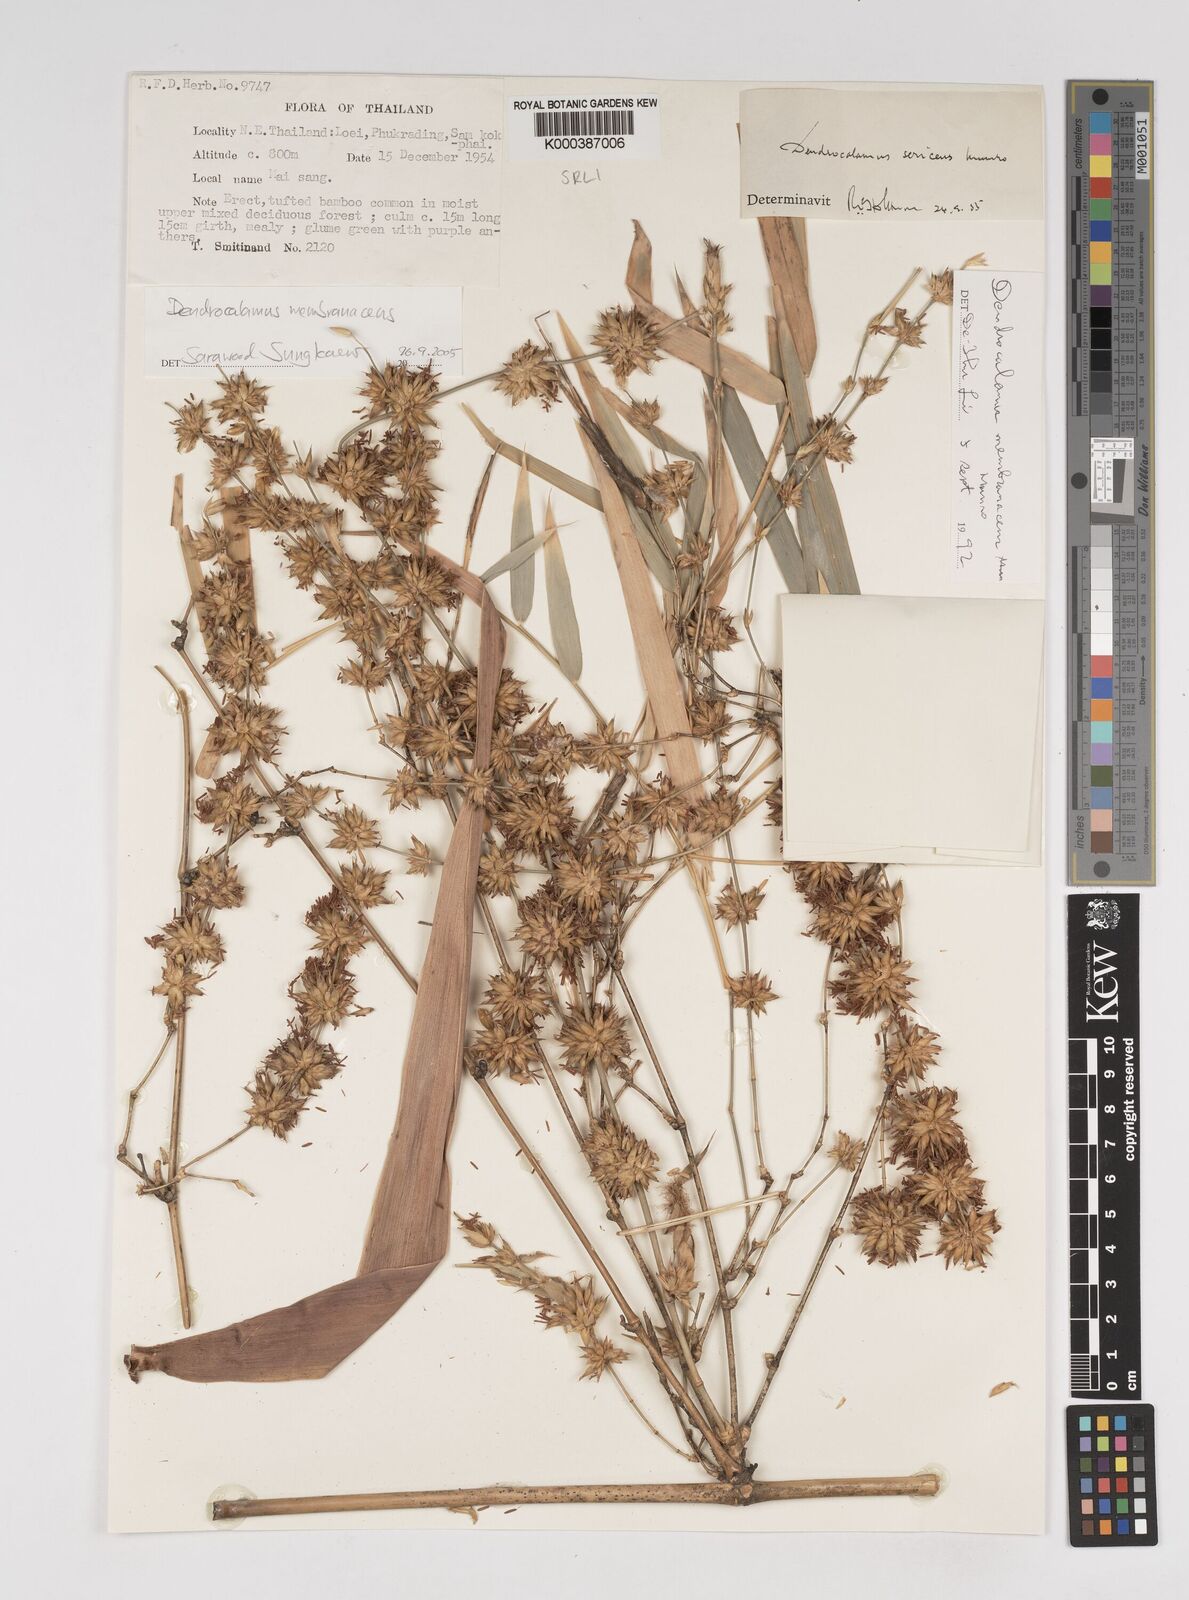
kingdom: Plantae
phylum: Tracheophyta
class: Liliopsida
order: Poales
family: Poaceae
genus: Dendrocalamus
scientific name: Dendrocalamus membranaceus
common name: White bamboo
